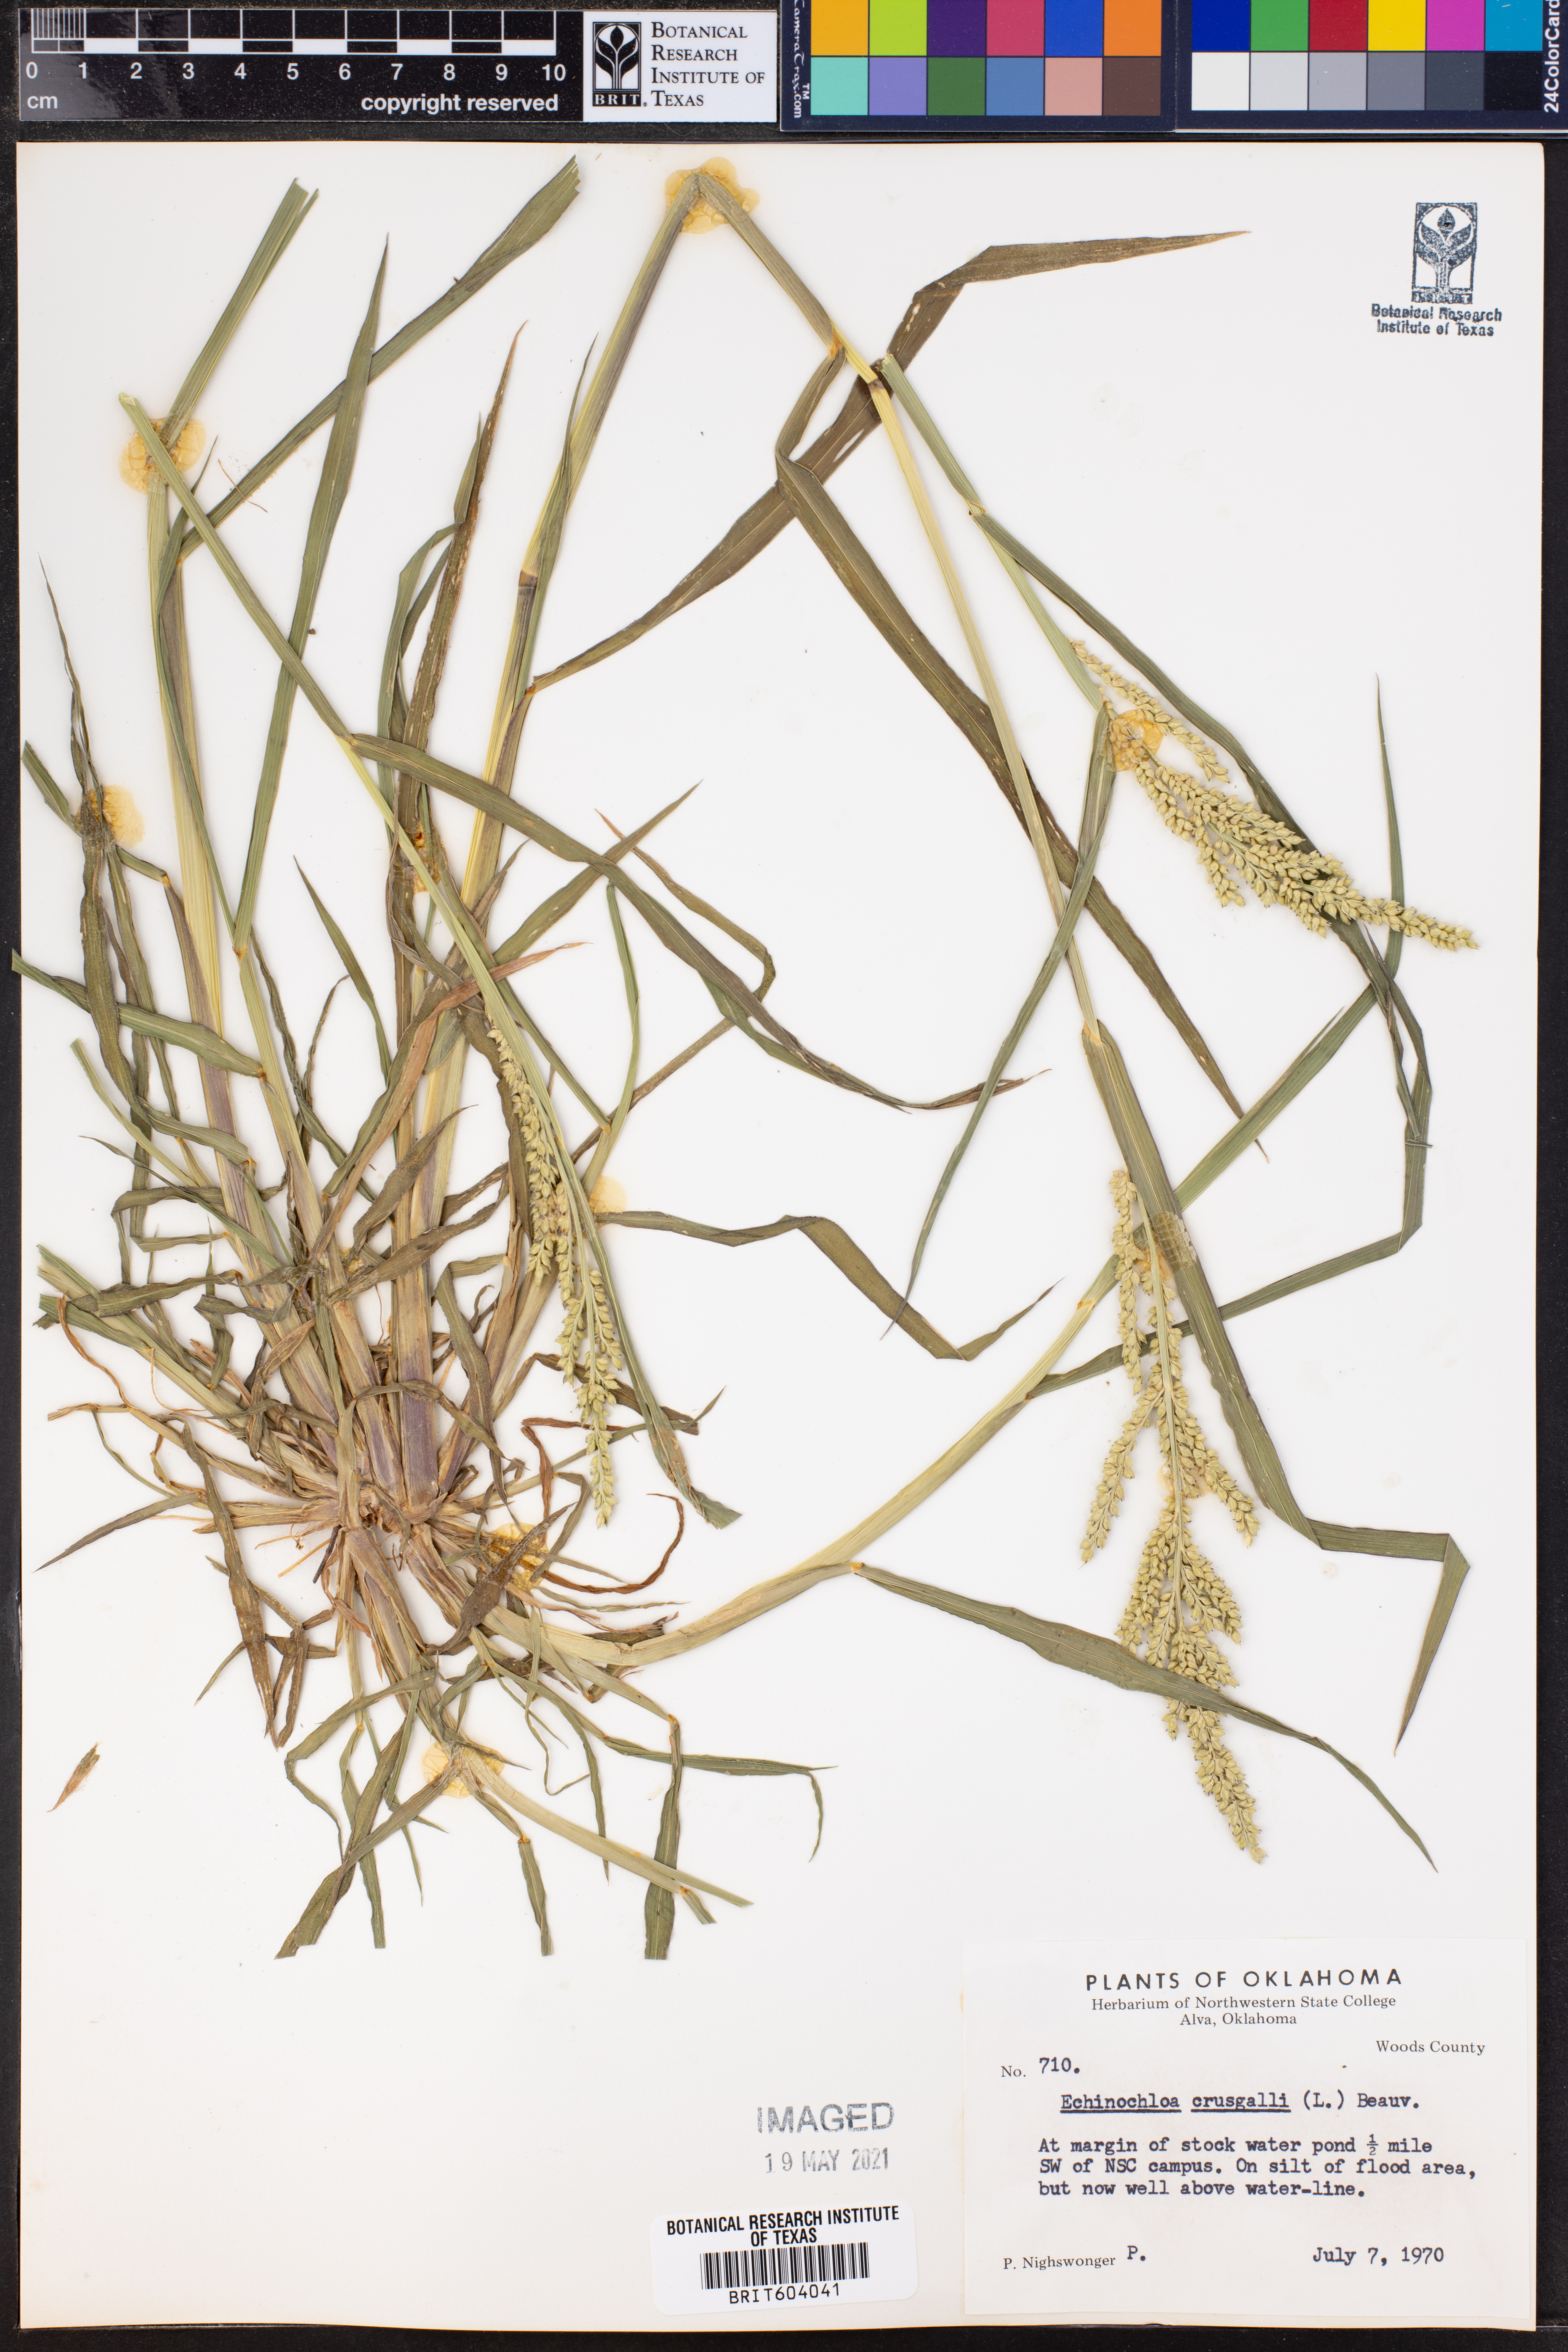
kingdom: Plantae
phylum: Tracheophyta
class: Liliopsida
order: Poales
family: Poaceae
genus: Echinochloa
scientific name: Echinochloa crus-galli
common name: Cockspur
